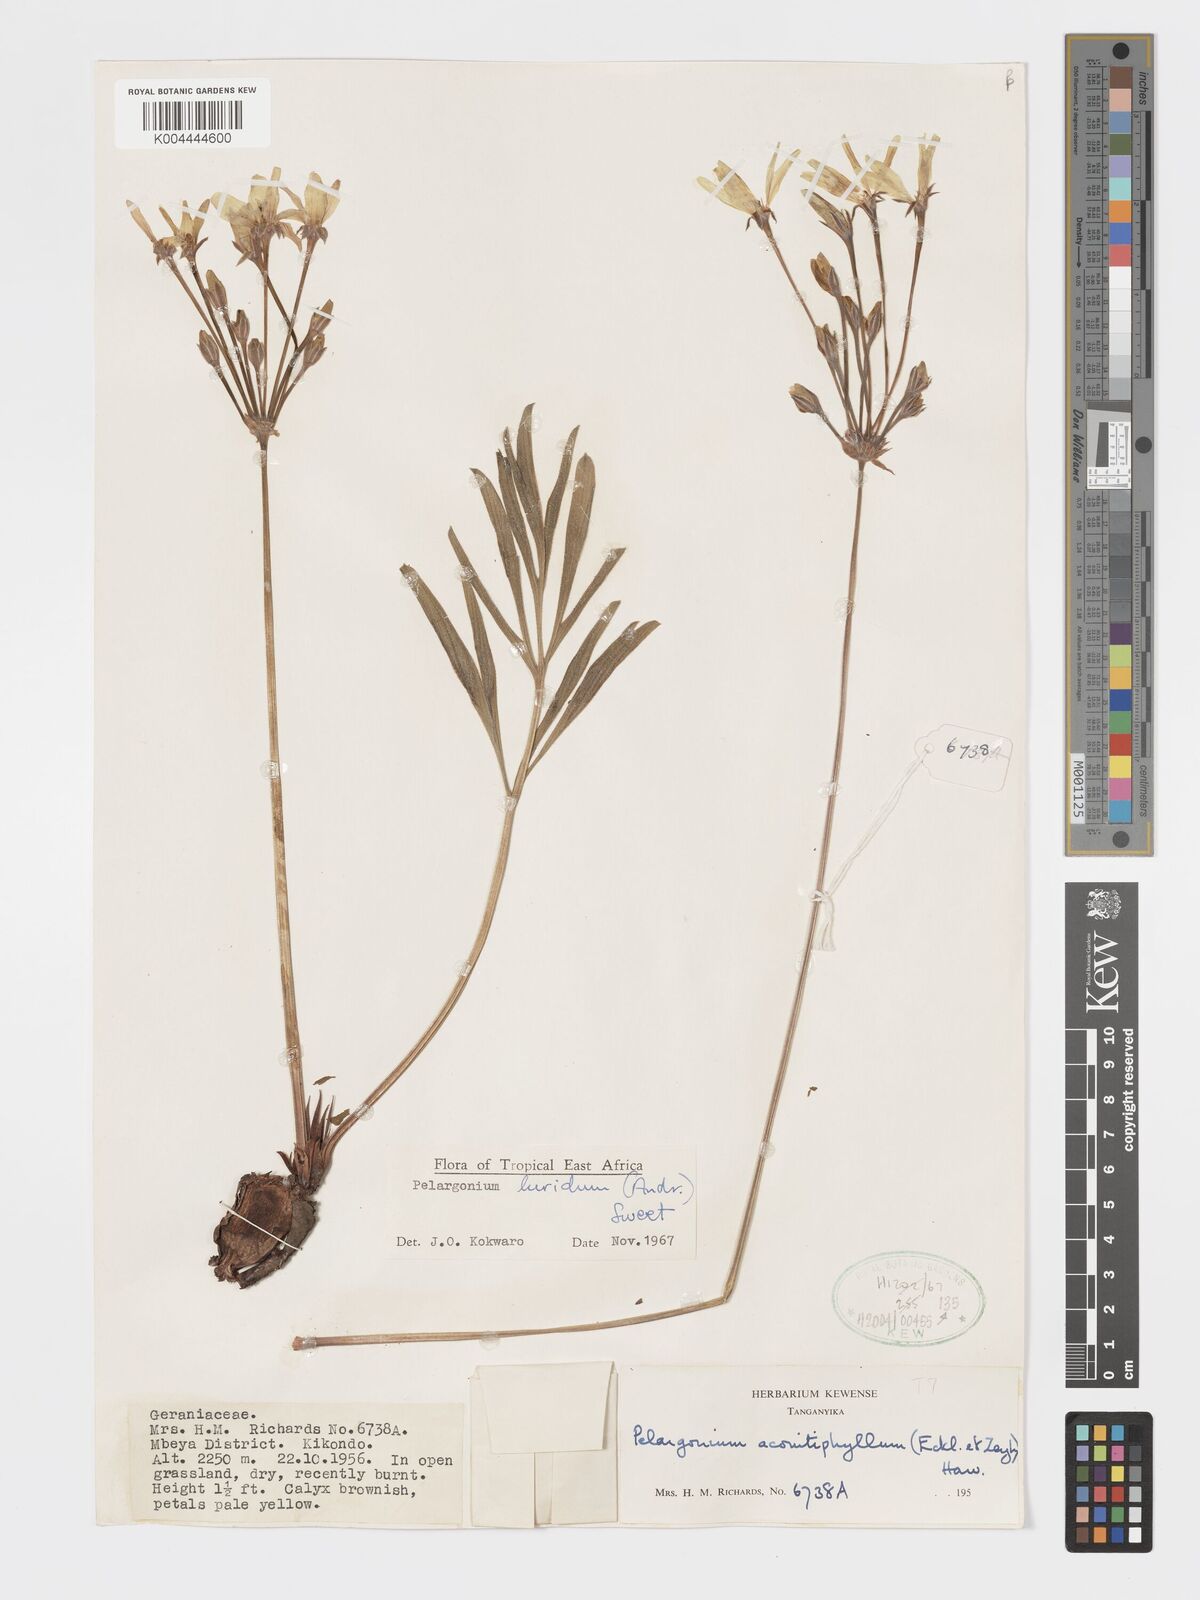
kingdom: Plantae
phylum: Tracheophyta
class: Magnoliopsida
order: Geraniales
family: Geraniaceae
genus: Pelargonium
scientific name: Pelargonium luridum
